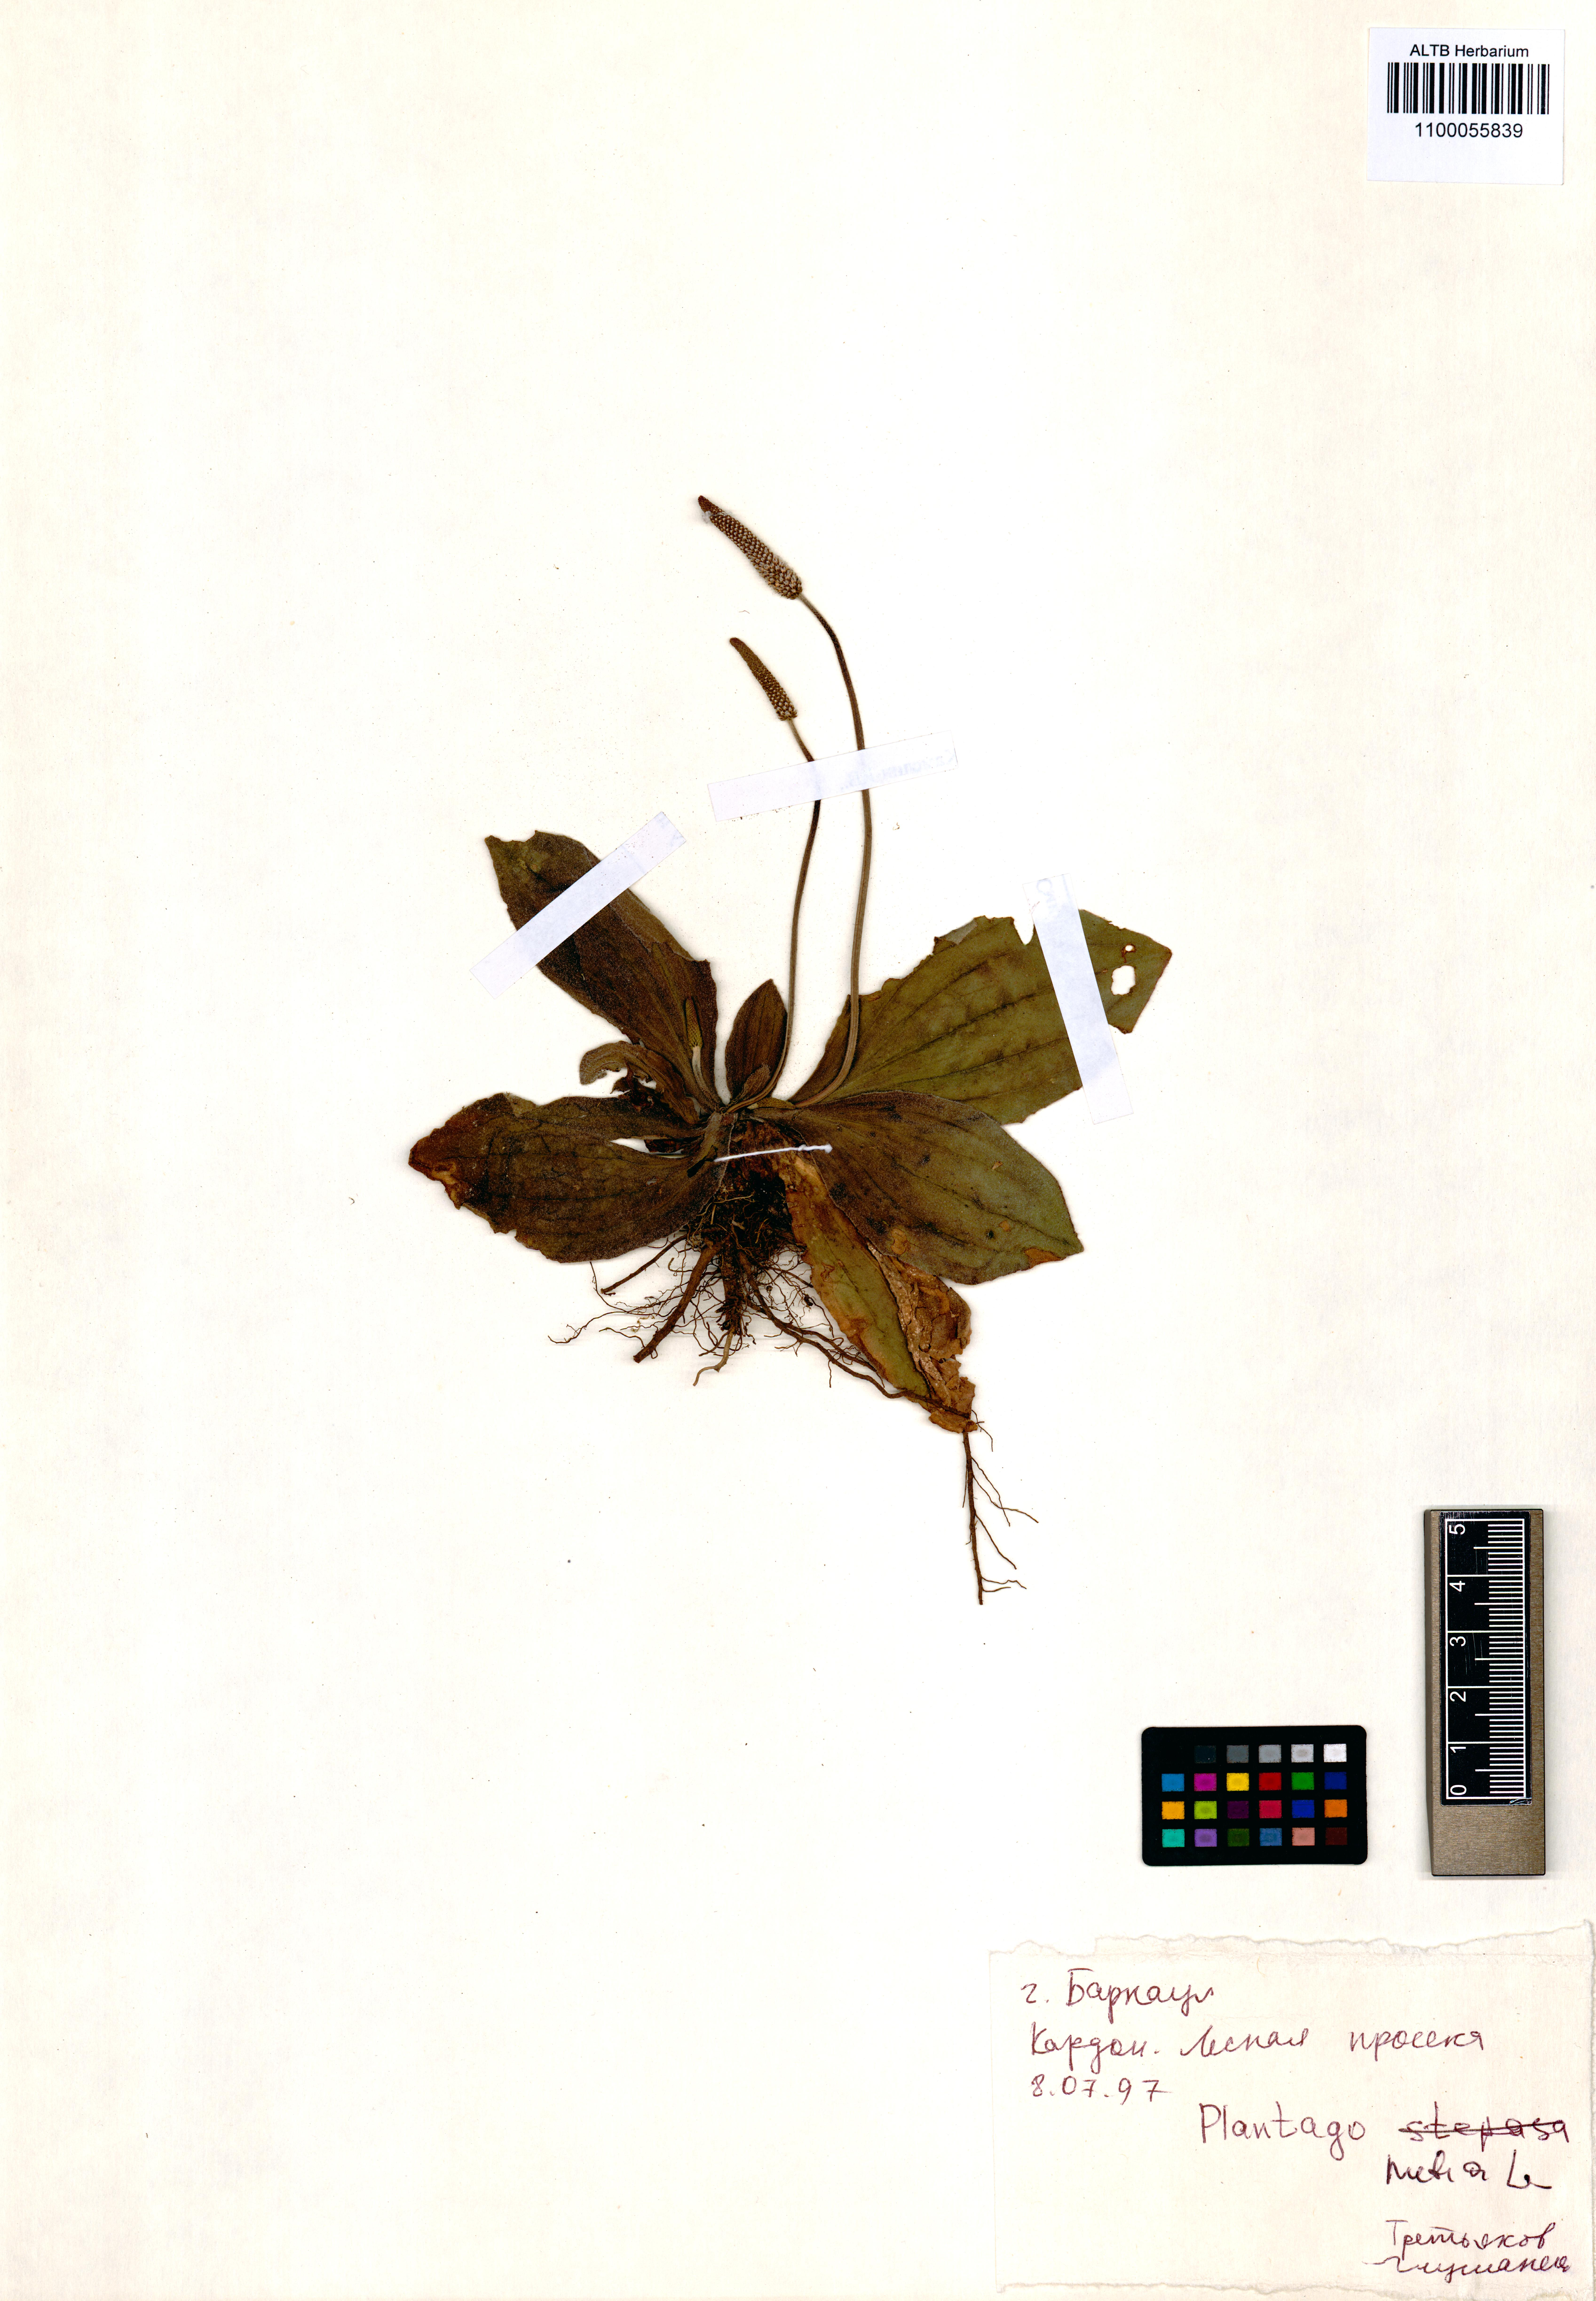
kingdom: Plantae
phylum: Tracheophyta
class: Magnoliopsida
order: Lamiales
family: Plantaginaceae
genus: Plantago
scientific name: Plantago media
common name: Hoary plantain
